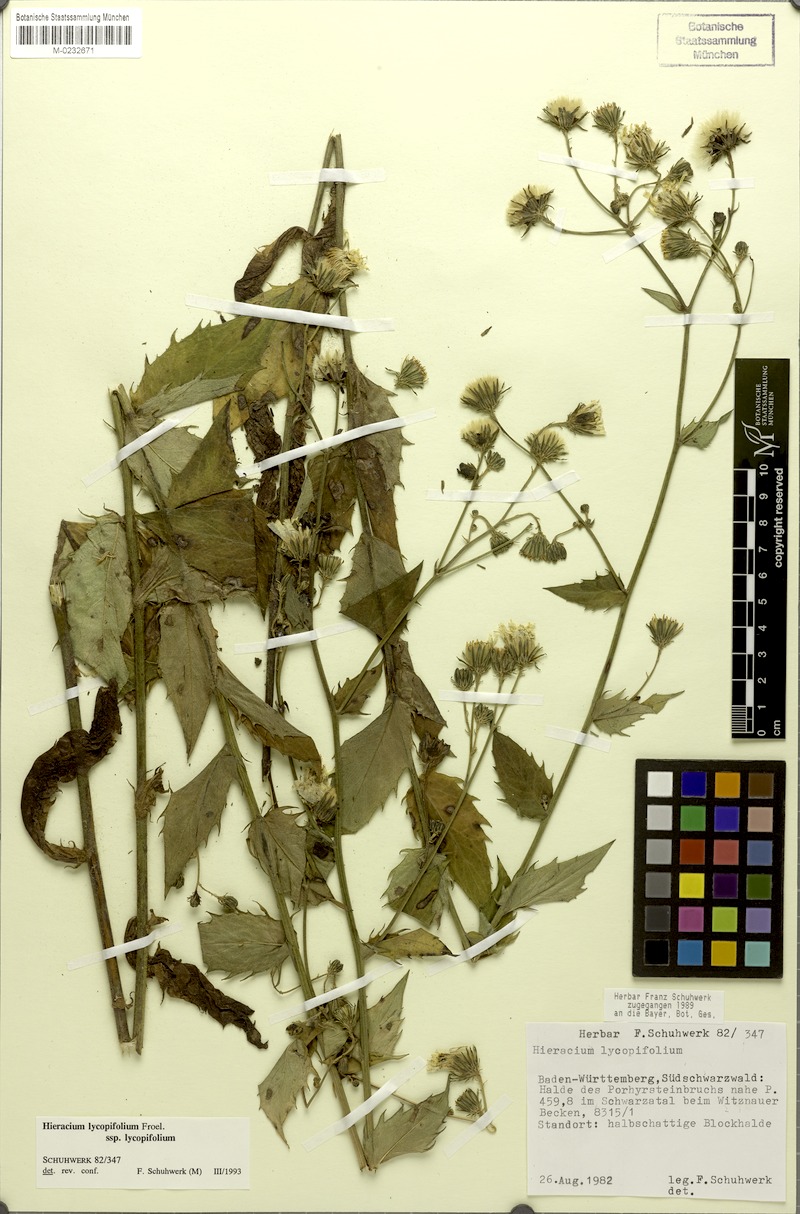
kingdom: Plantae
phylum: Tracheophyta
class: Magnoliopsida
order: Asterales
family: Asteraceae
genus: Hieracium
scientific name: Hieracium lycopifolium
